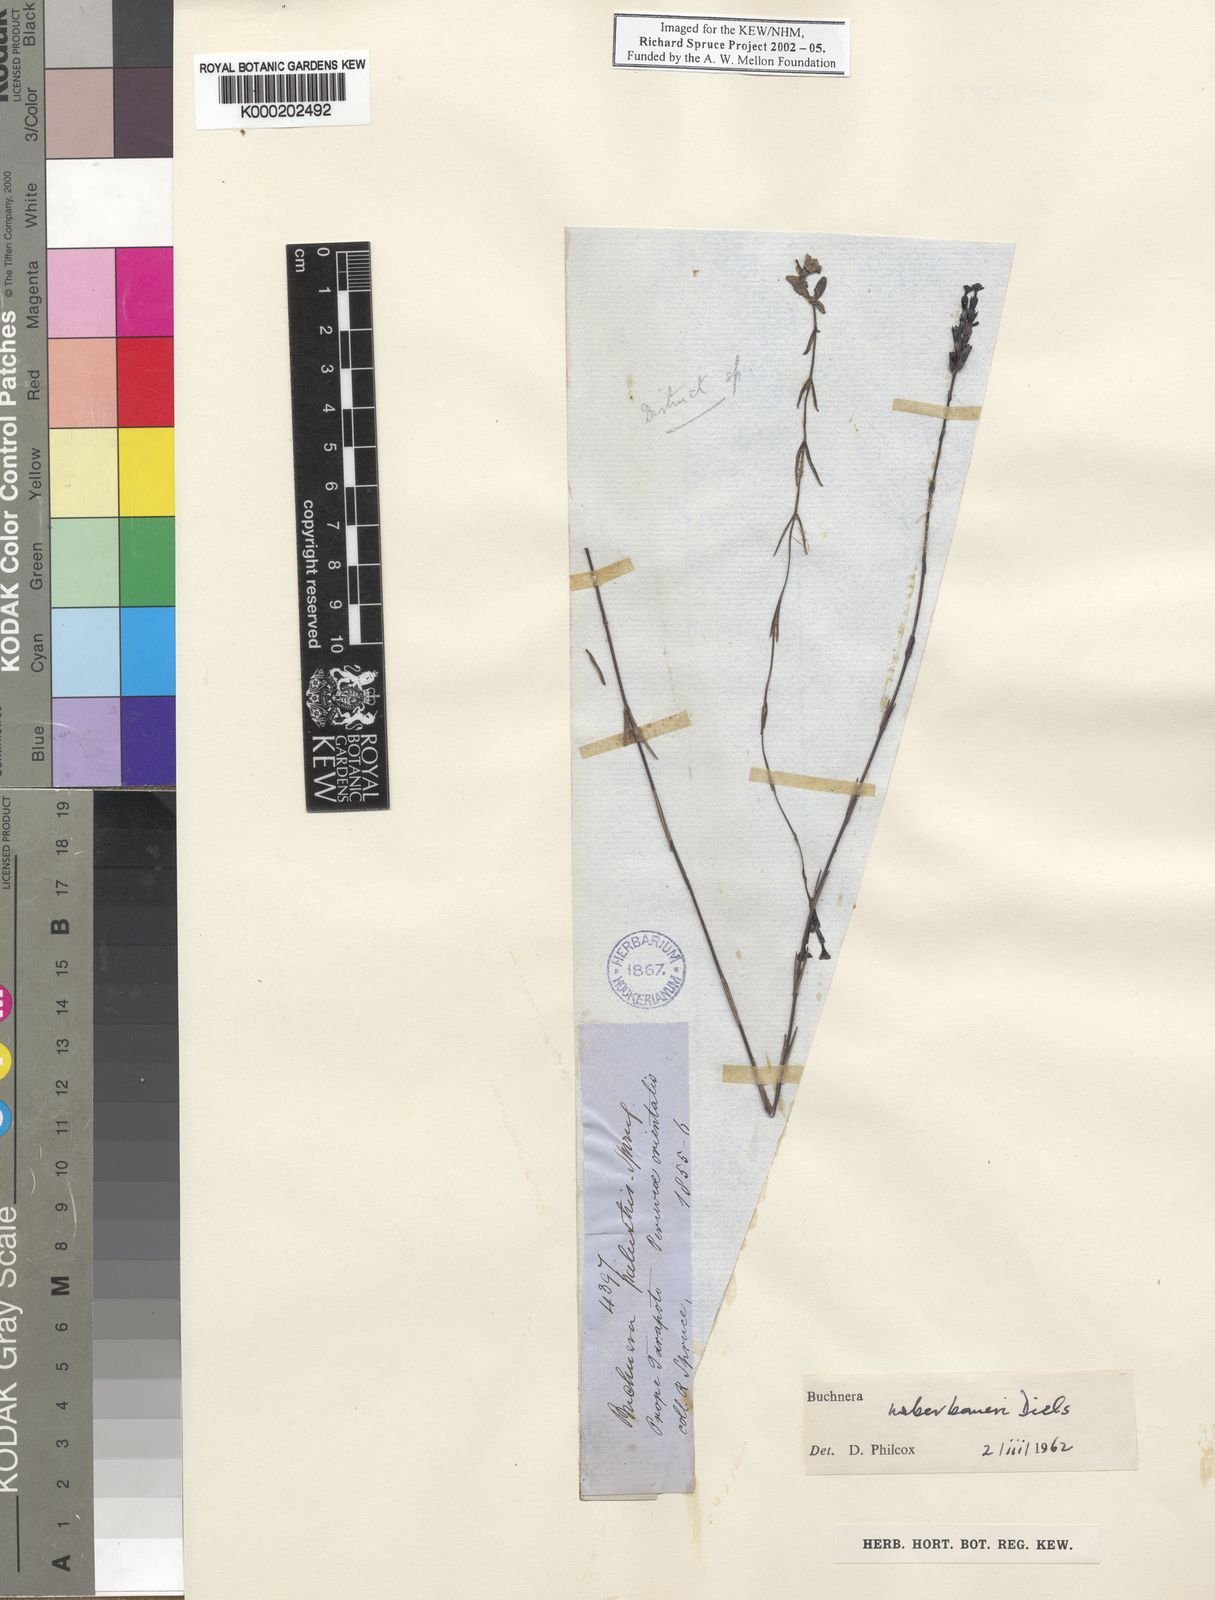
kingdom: Plantae
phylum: Tracheophyta
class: Magnoliopsida
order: Lamiales
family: Orobanchaceae
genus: Buchnera
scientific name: Buchnera weberbaueri
